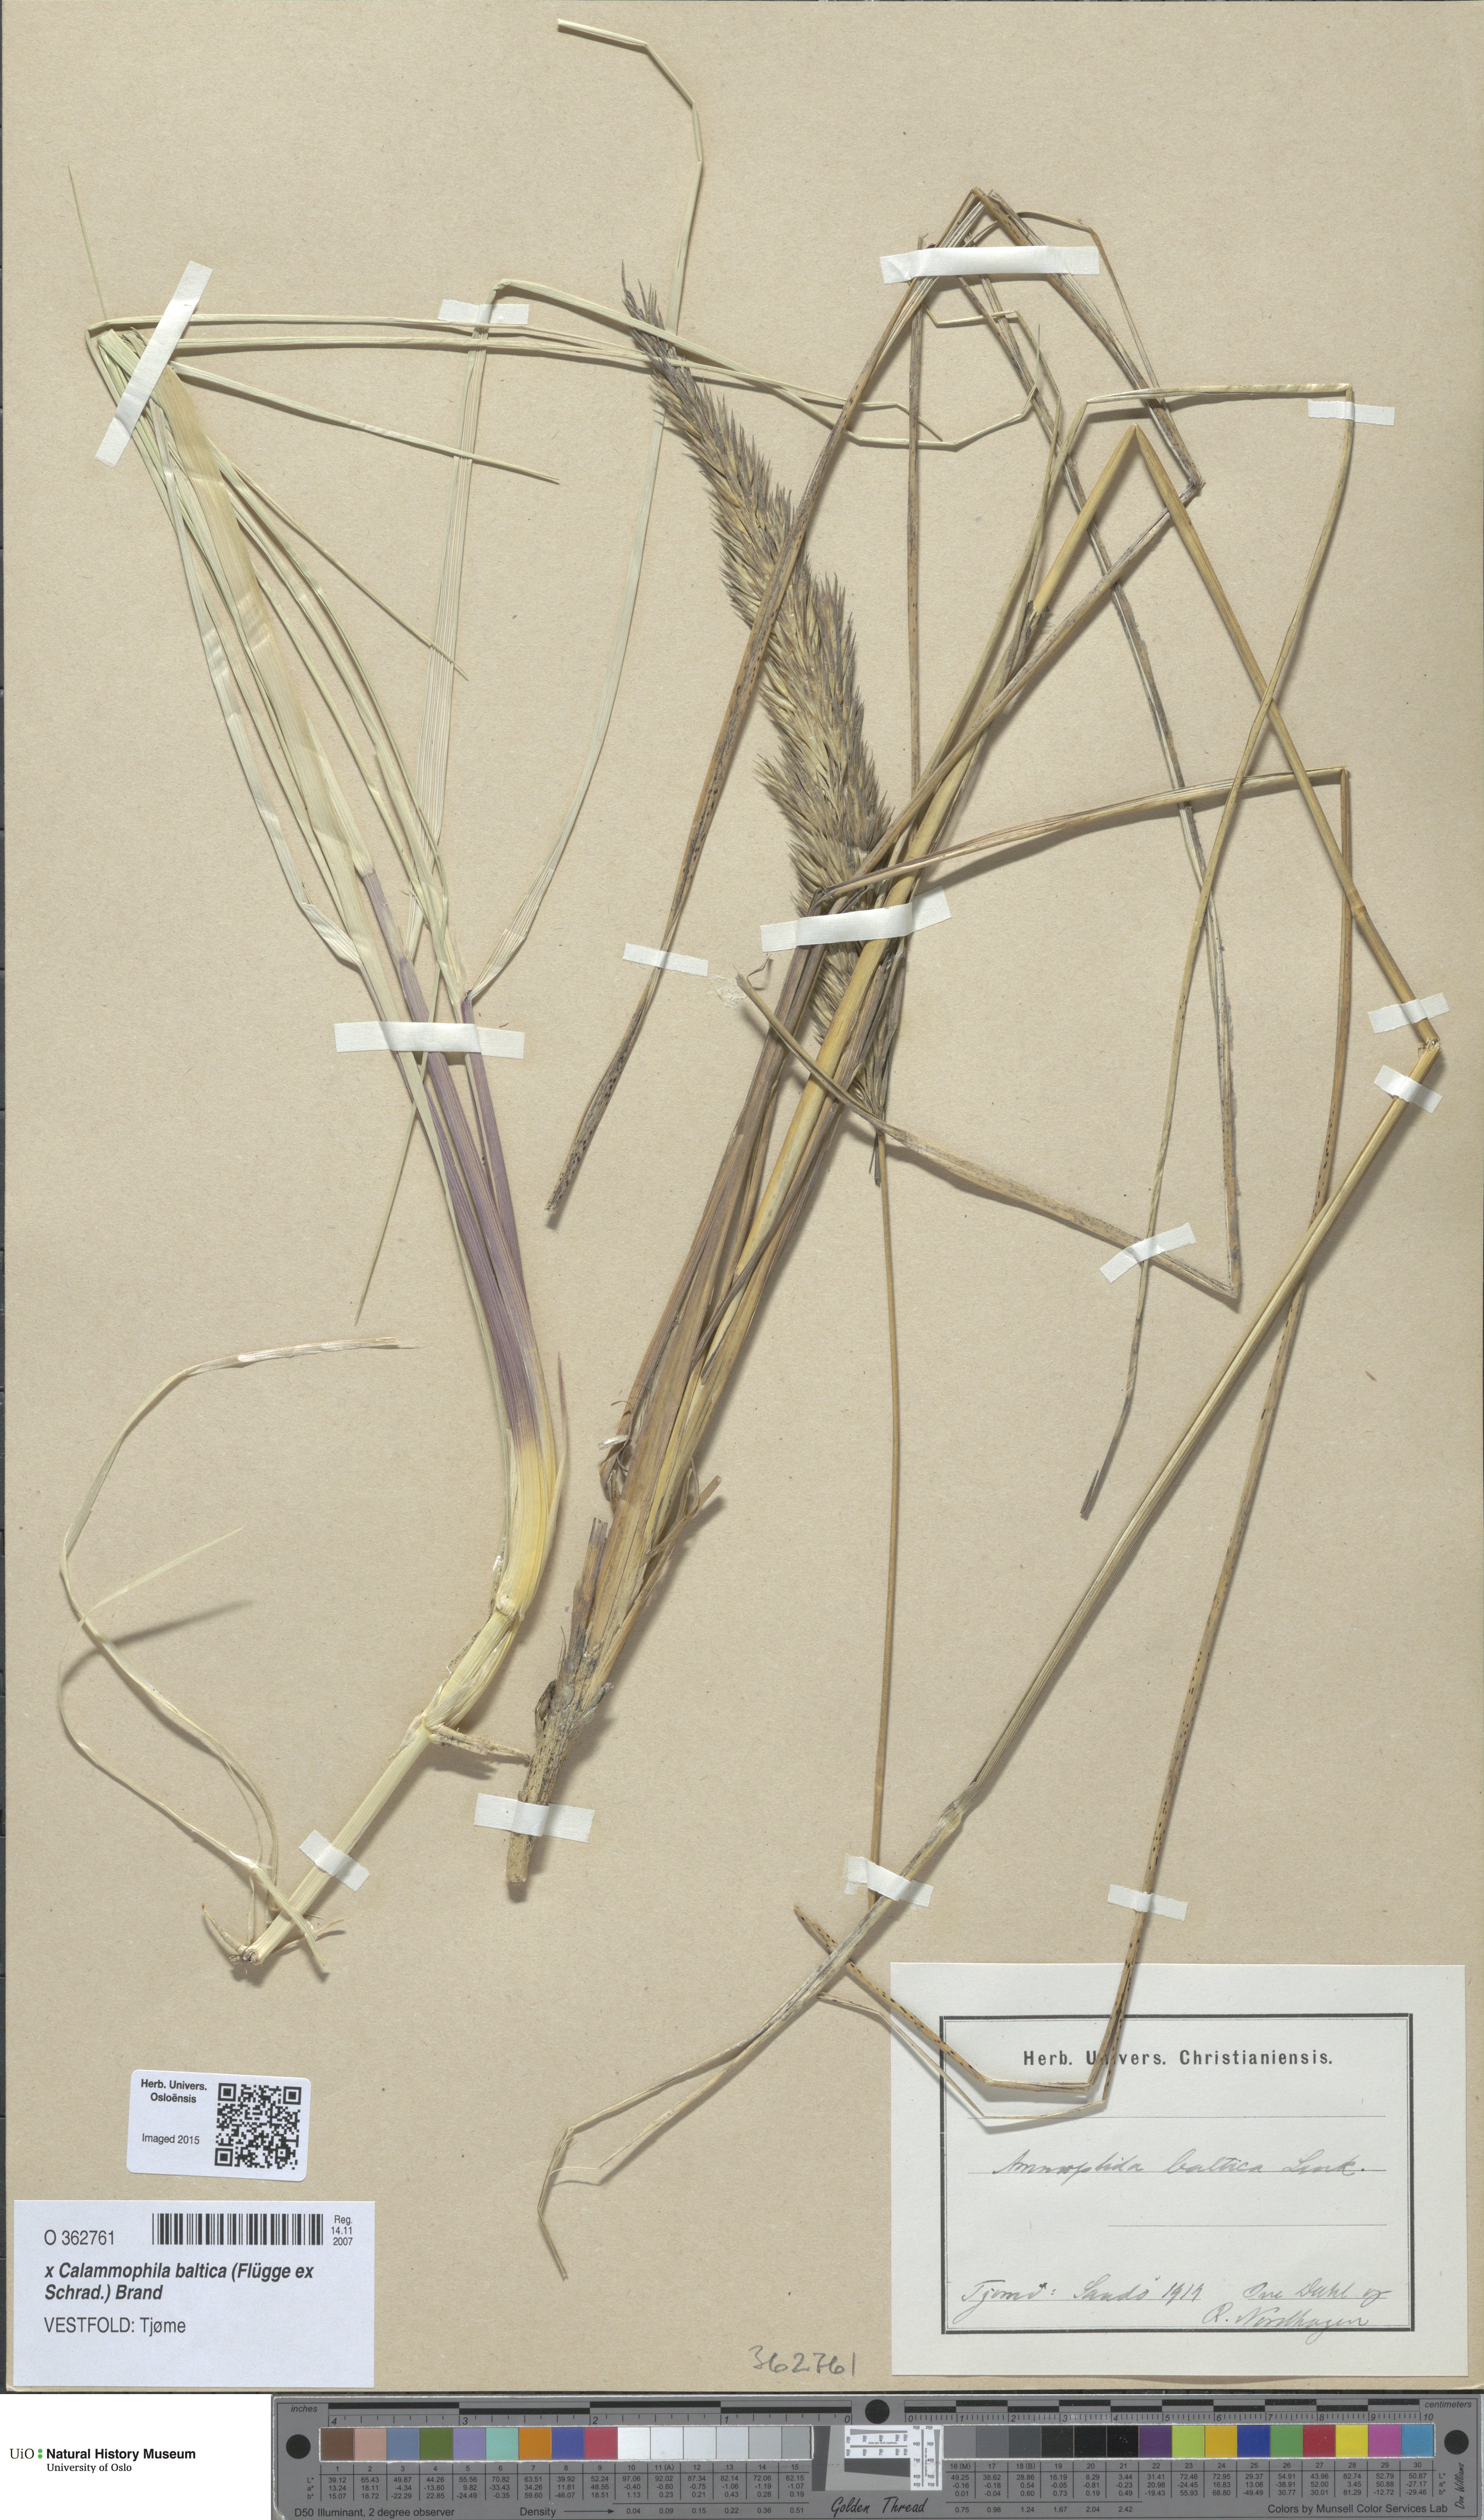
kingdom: Plantae
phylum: Tracheophyta
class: Liliopsida
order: Poales
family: Poaceae
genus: Calamagrostis
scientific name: Calamagrostis baltica
